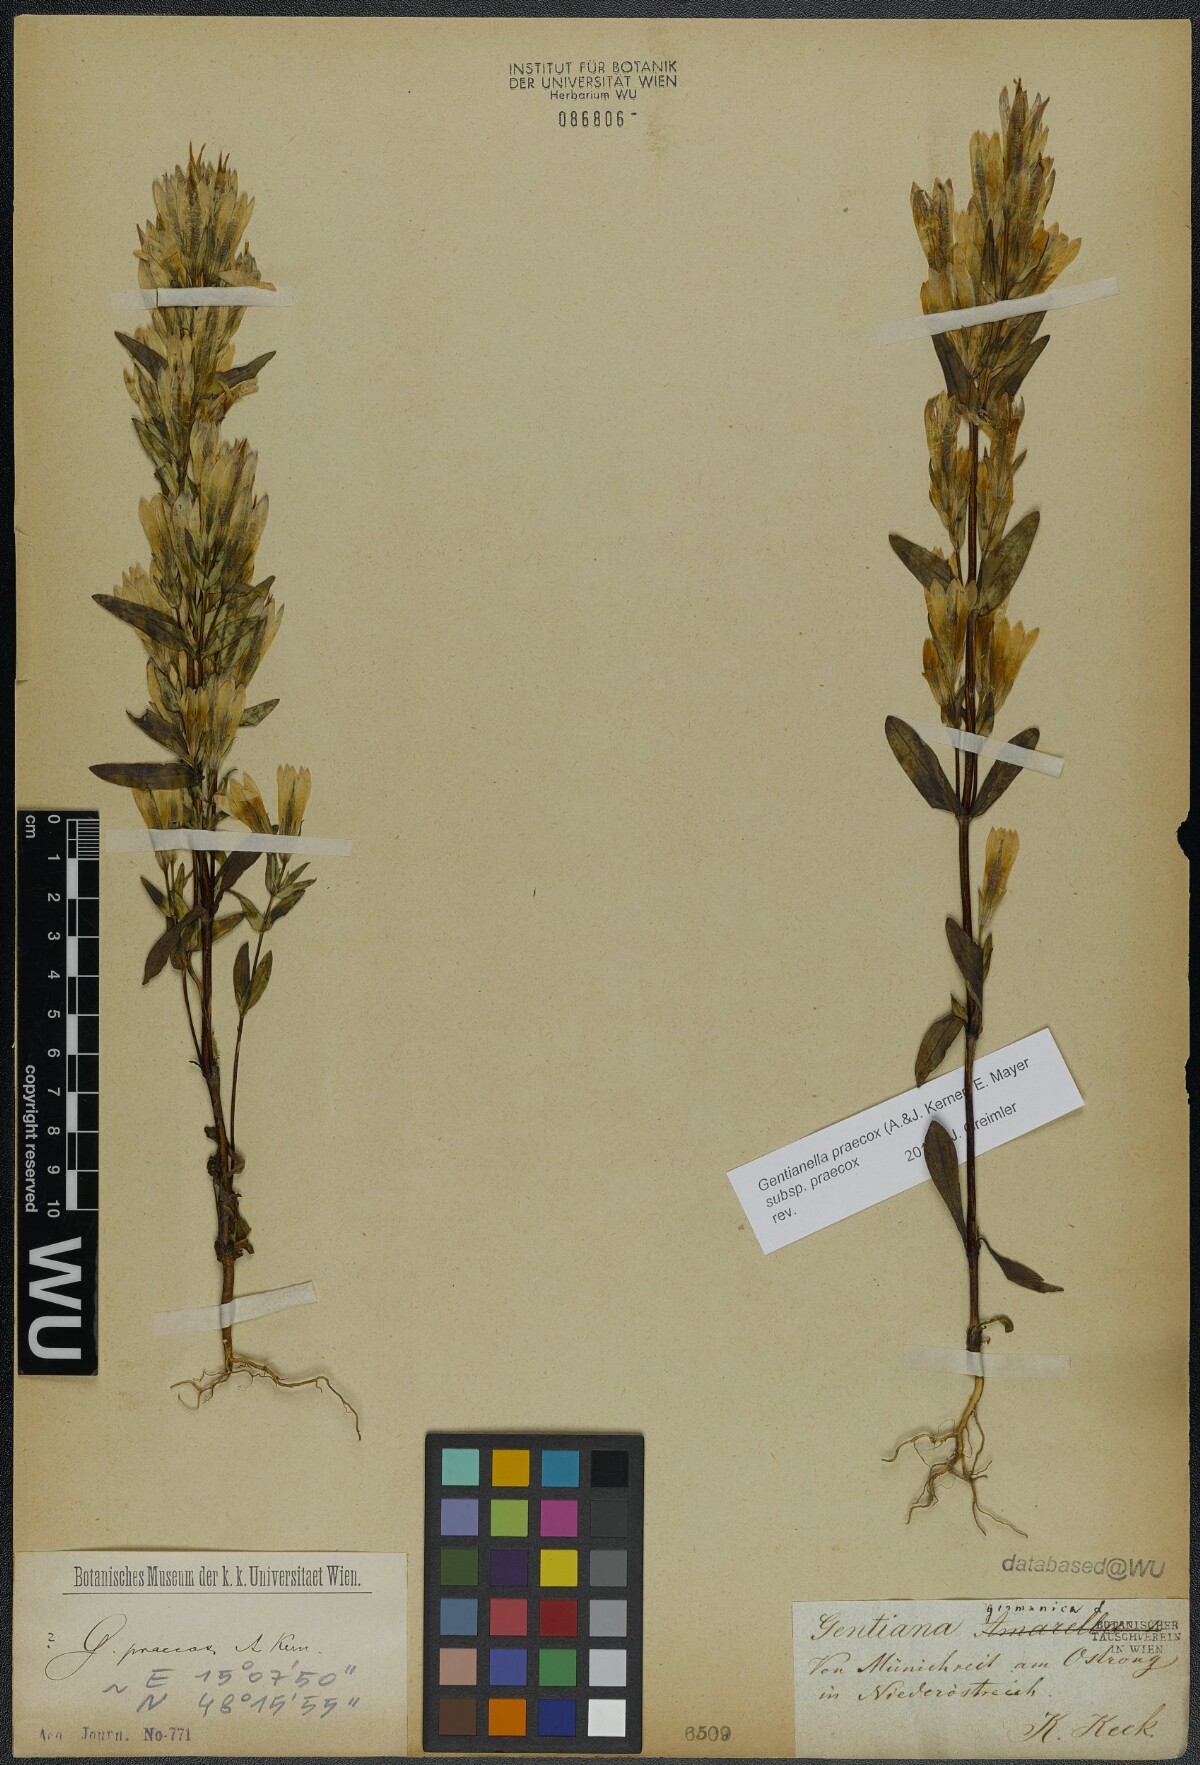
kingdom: Plantae
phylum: Tracheophyta
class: Magnoliopsida
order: Gentianales
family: Gentianaceae
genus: Gentianella
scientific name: Gentianella praecox
